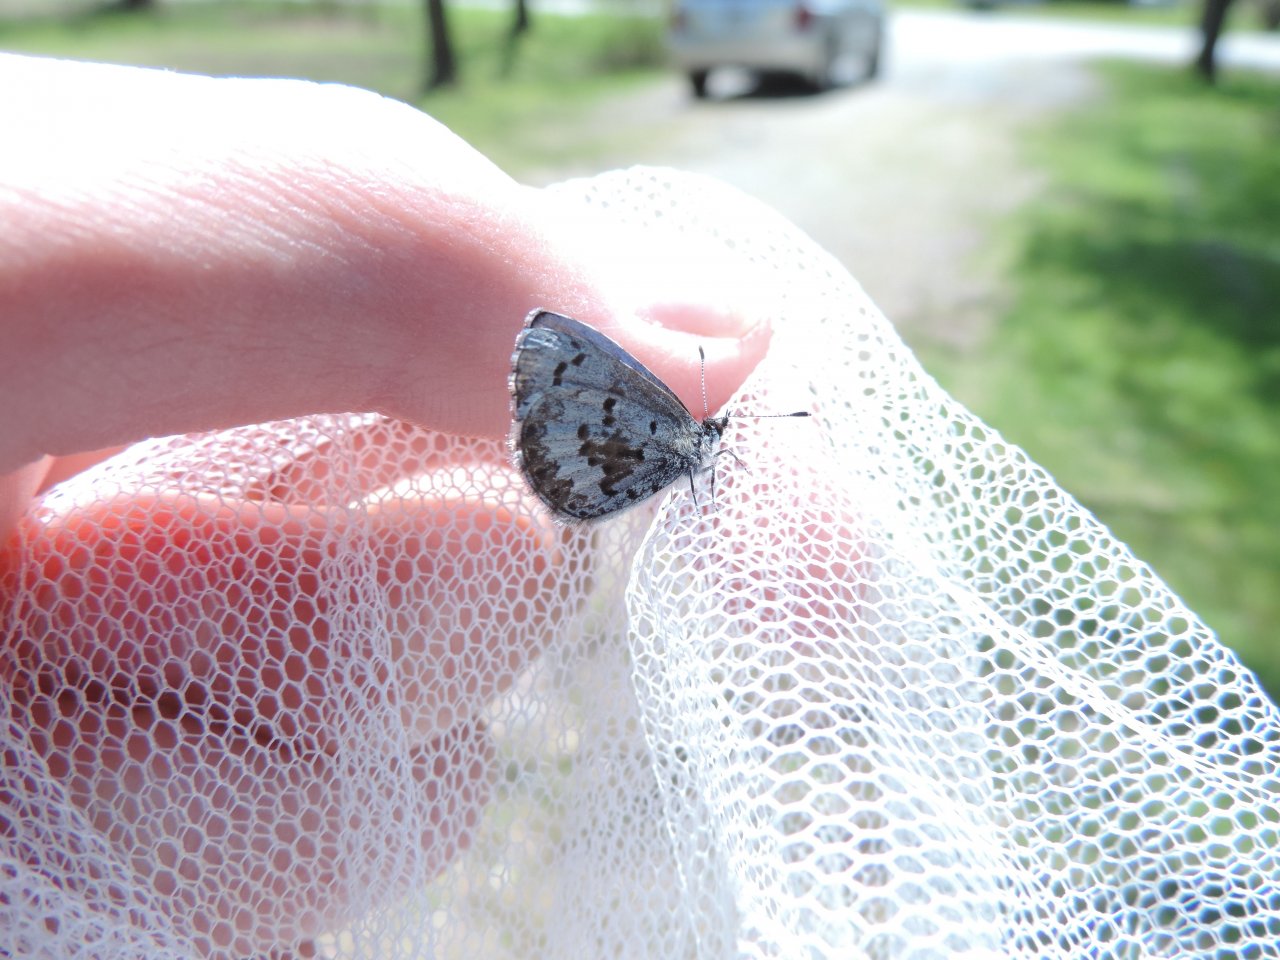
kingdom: Animalia
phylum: Arthropoda
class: Insecta
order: Lepidoptera
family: Lycaenidae
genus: Celastrina
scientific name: Celastrina lucia
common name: Northern Spring Azure
